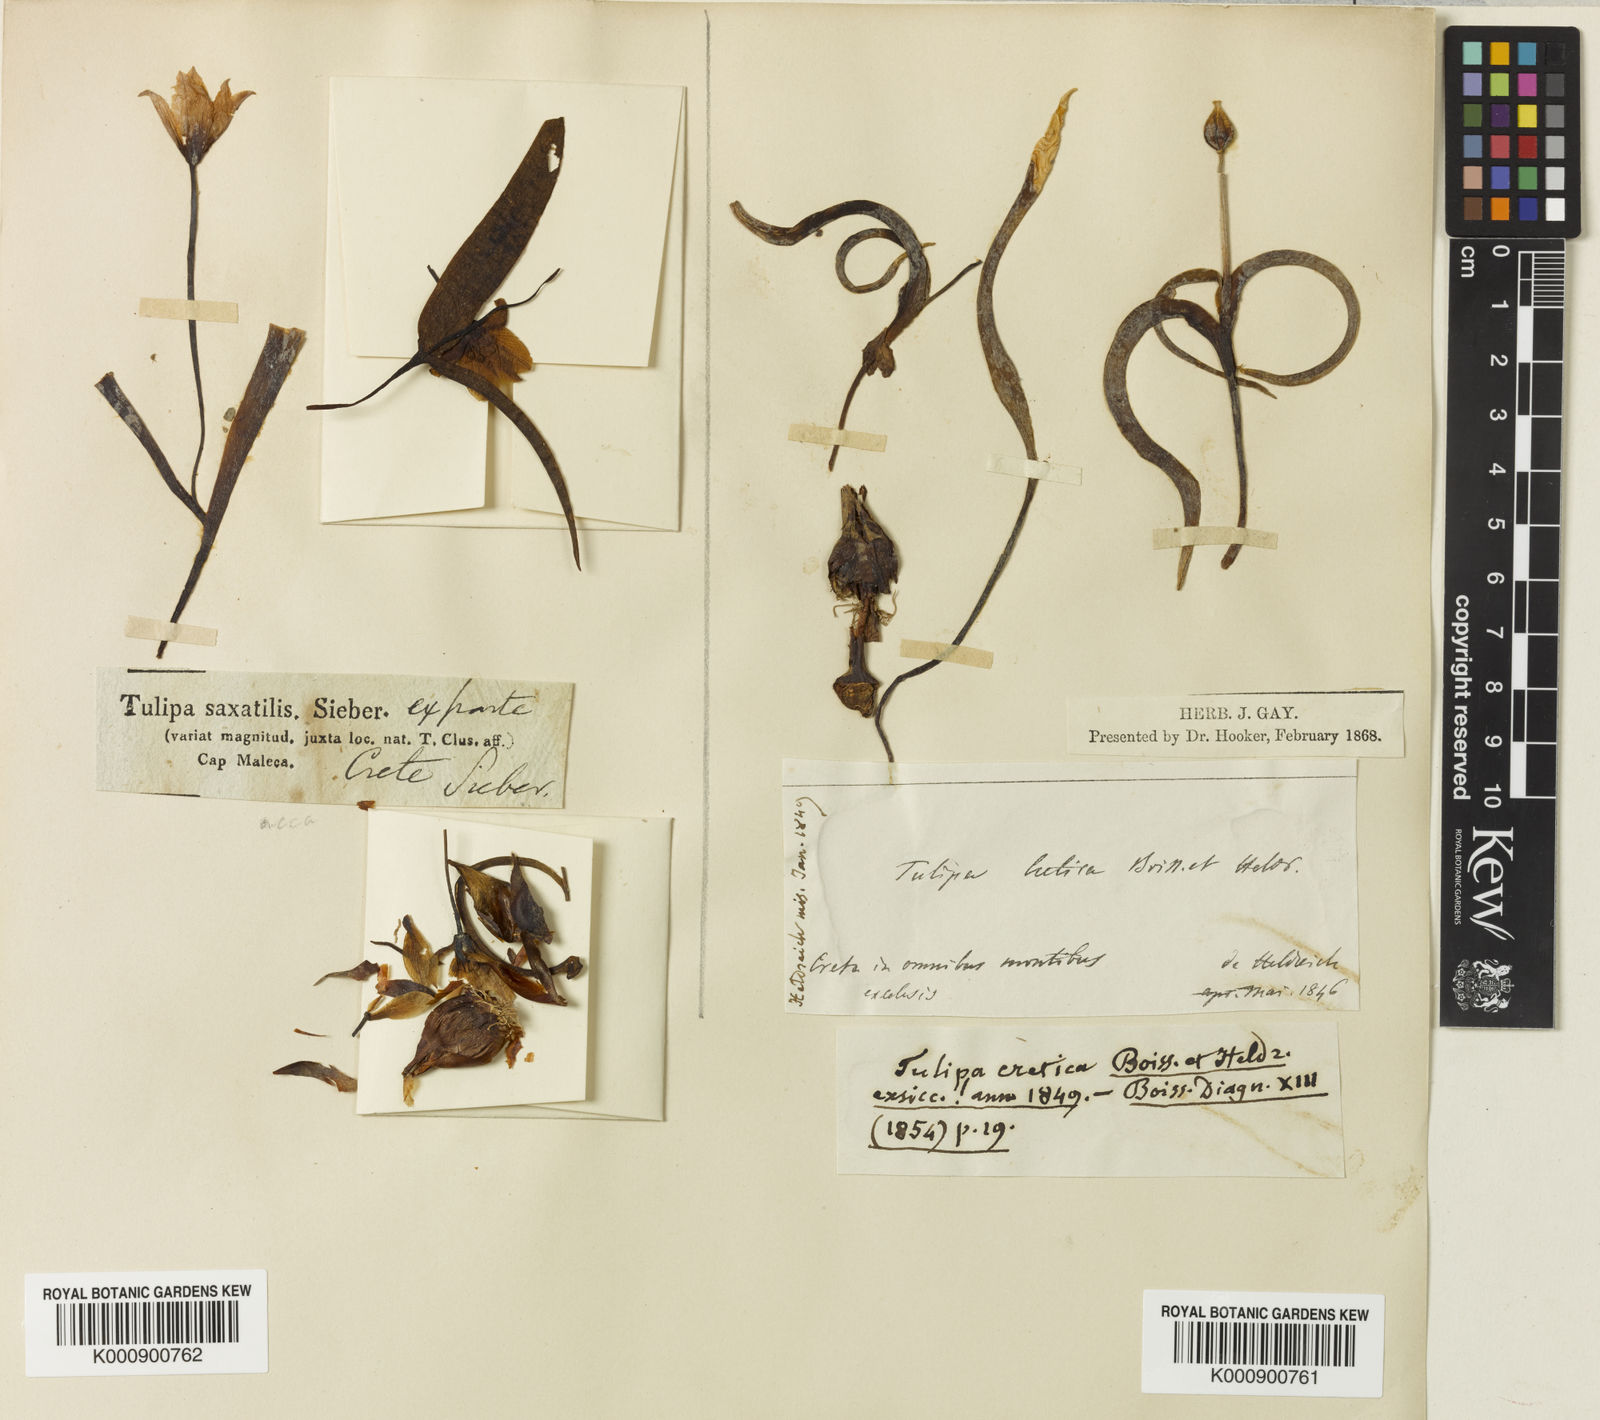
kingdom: Plantae
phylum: Tracheophyta
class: Liliopsida
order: Liliales
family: Liliaceae
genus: Tulipa
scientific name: Tulipa cretica
